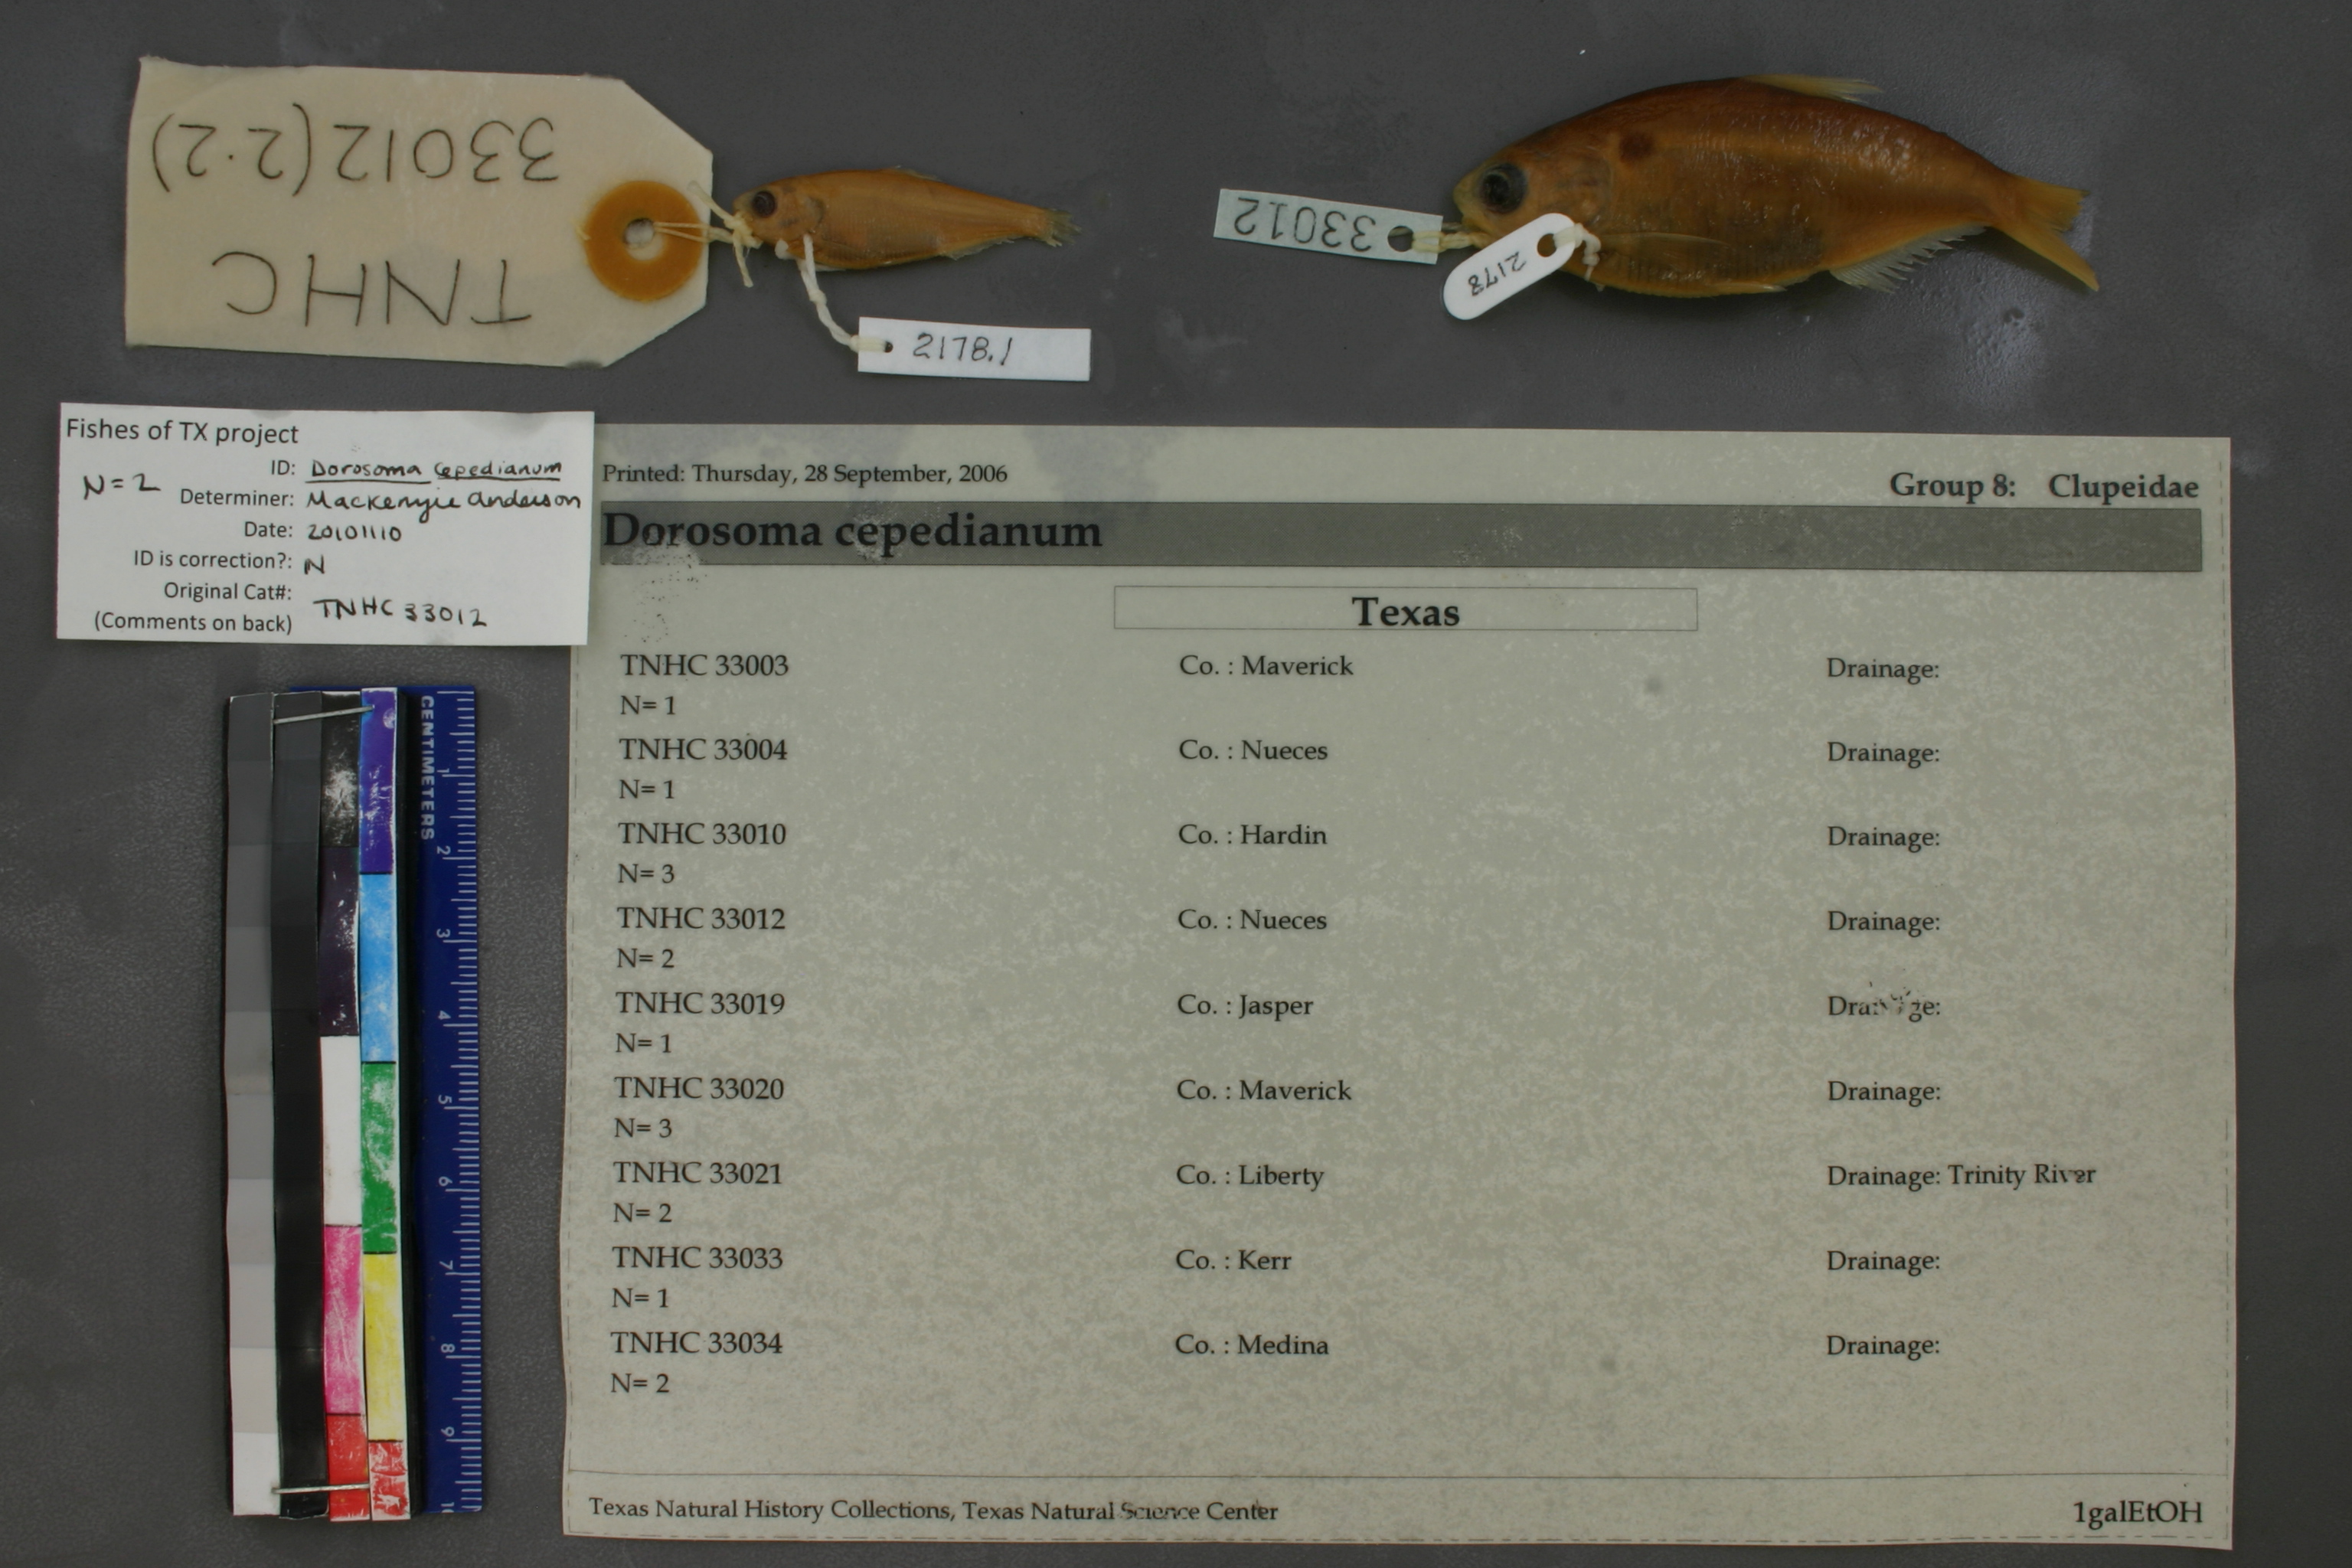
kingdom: Animalia
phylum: Chordata
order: Clupeiformes
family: Clupeidae
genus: Dorosoma
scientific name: Dorosoma cepedianum
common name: Gizzard shad
